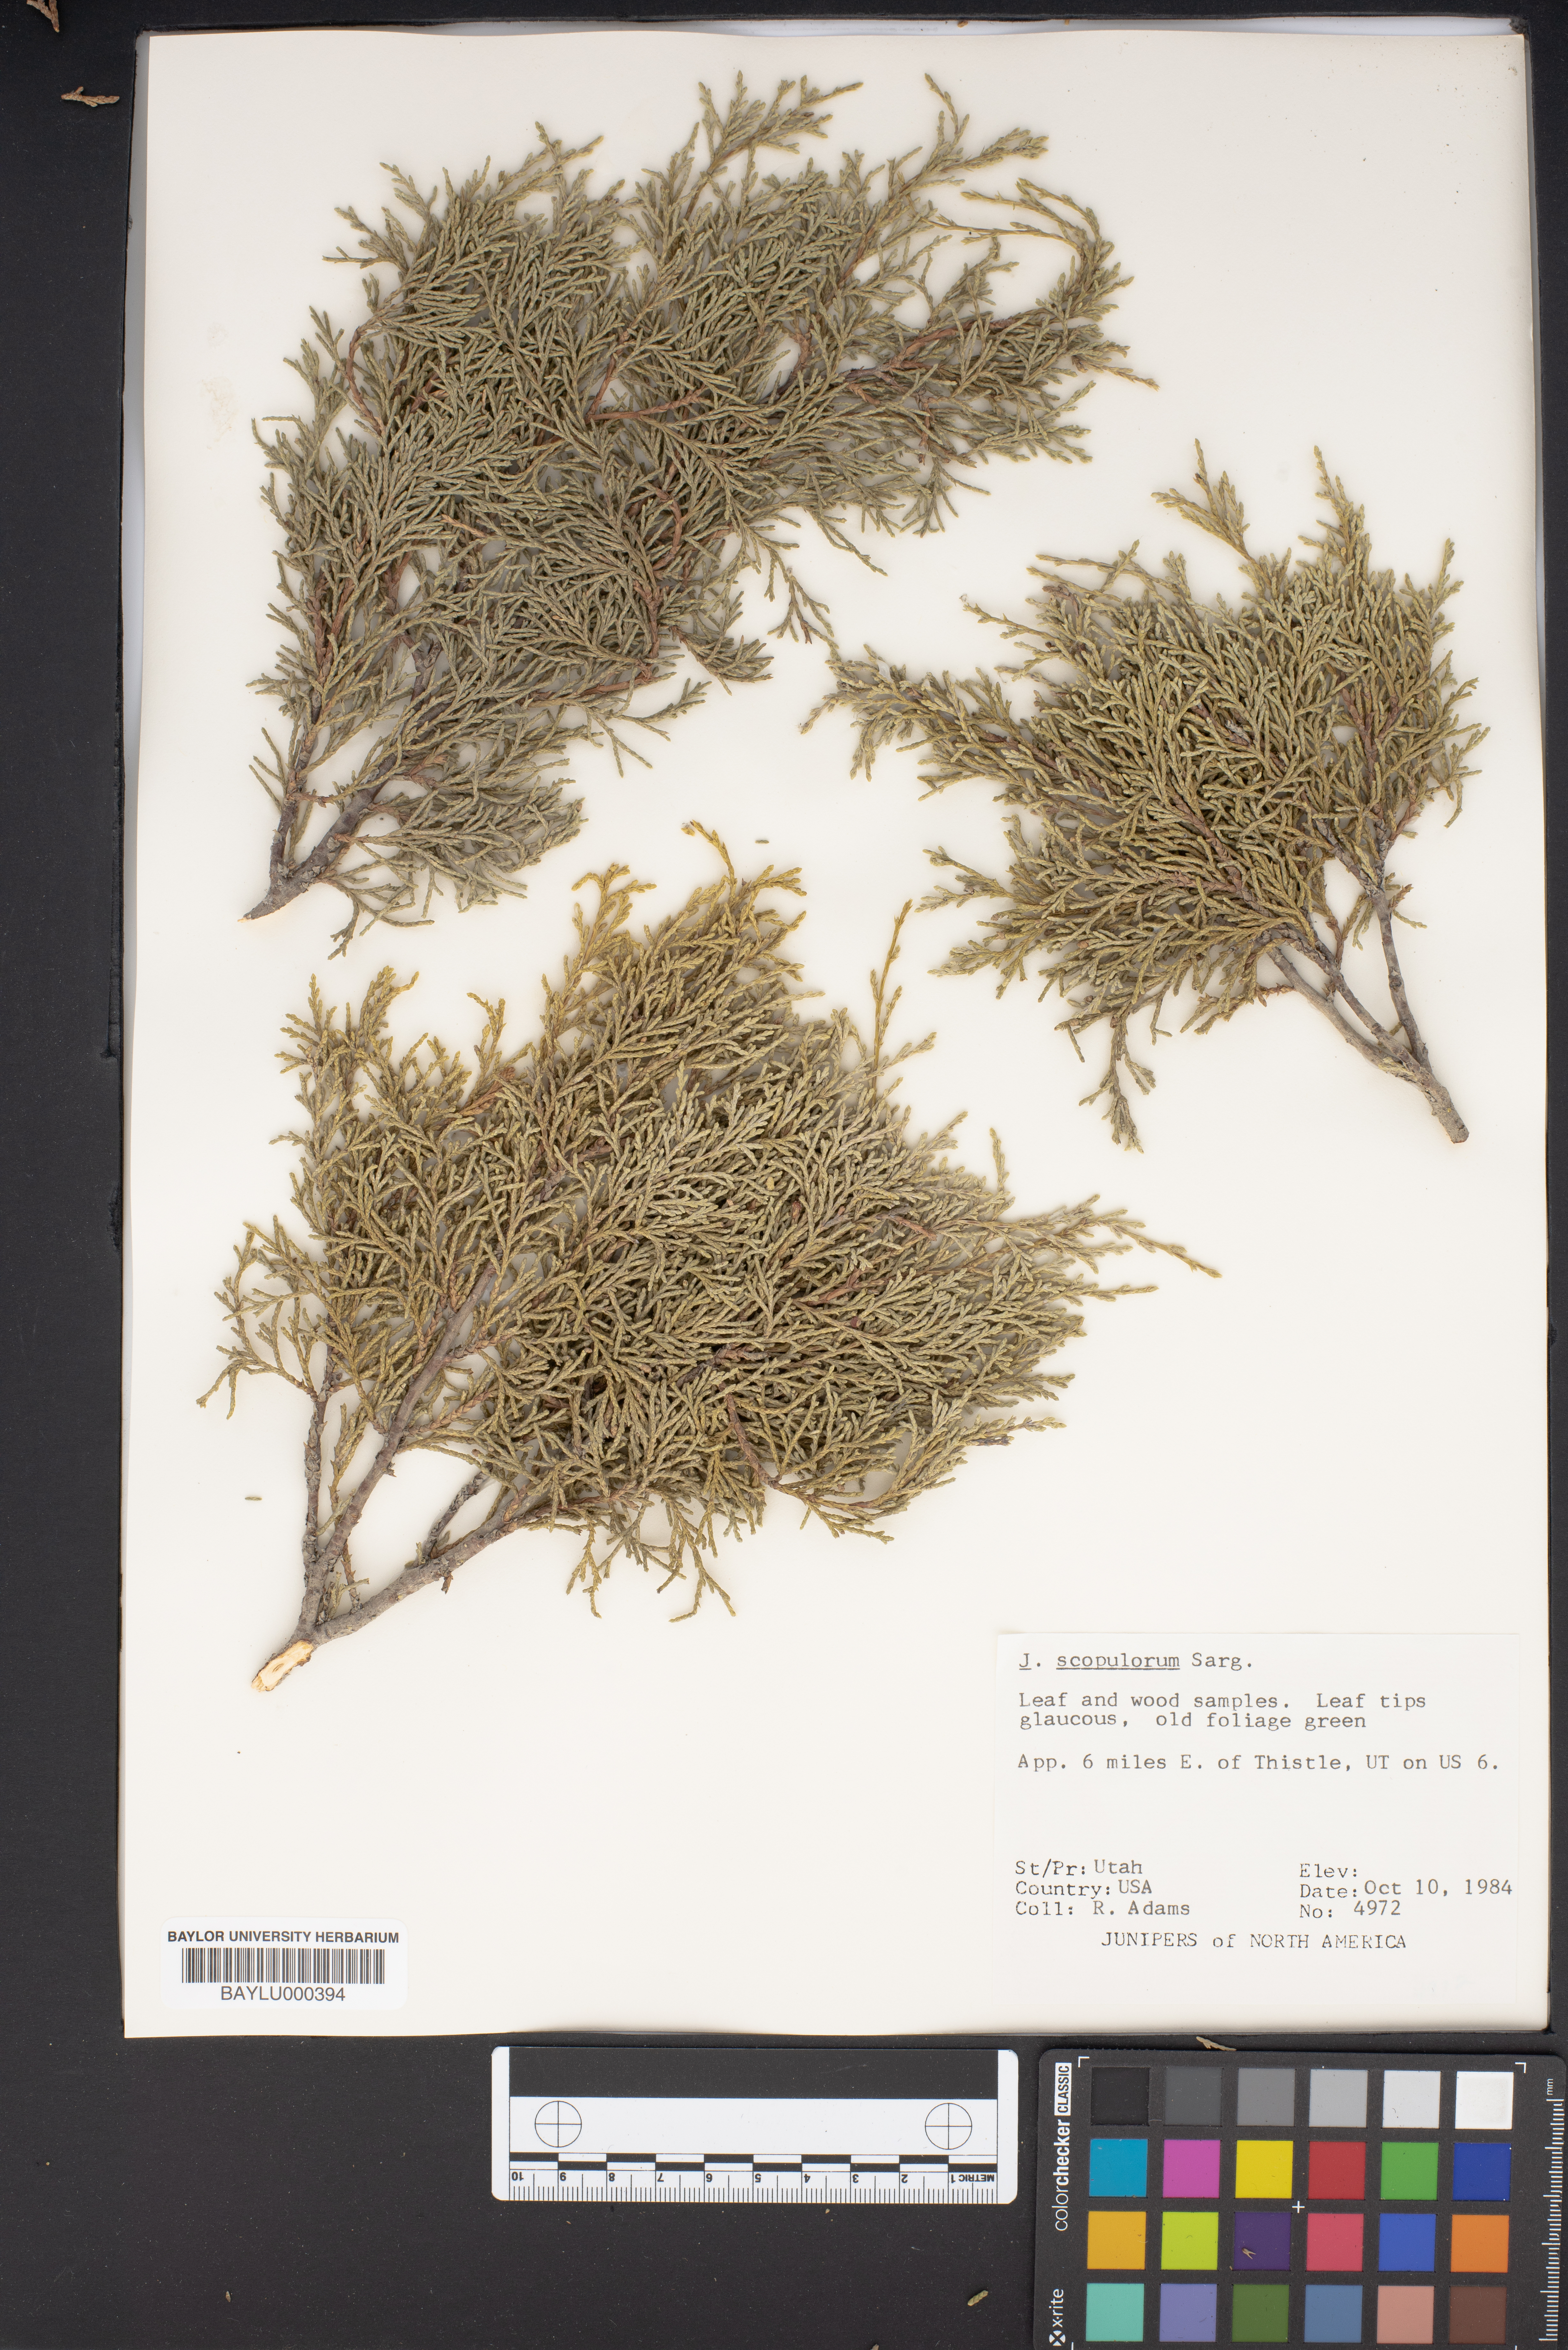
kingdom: Plantae
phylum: Tracheophyta
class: Pinopsida
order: Pinales
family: Cupressaceae
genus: Juniperus
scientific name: Juniperus scopulorum
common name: Rocky mountain juniper
